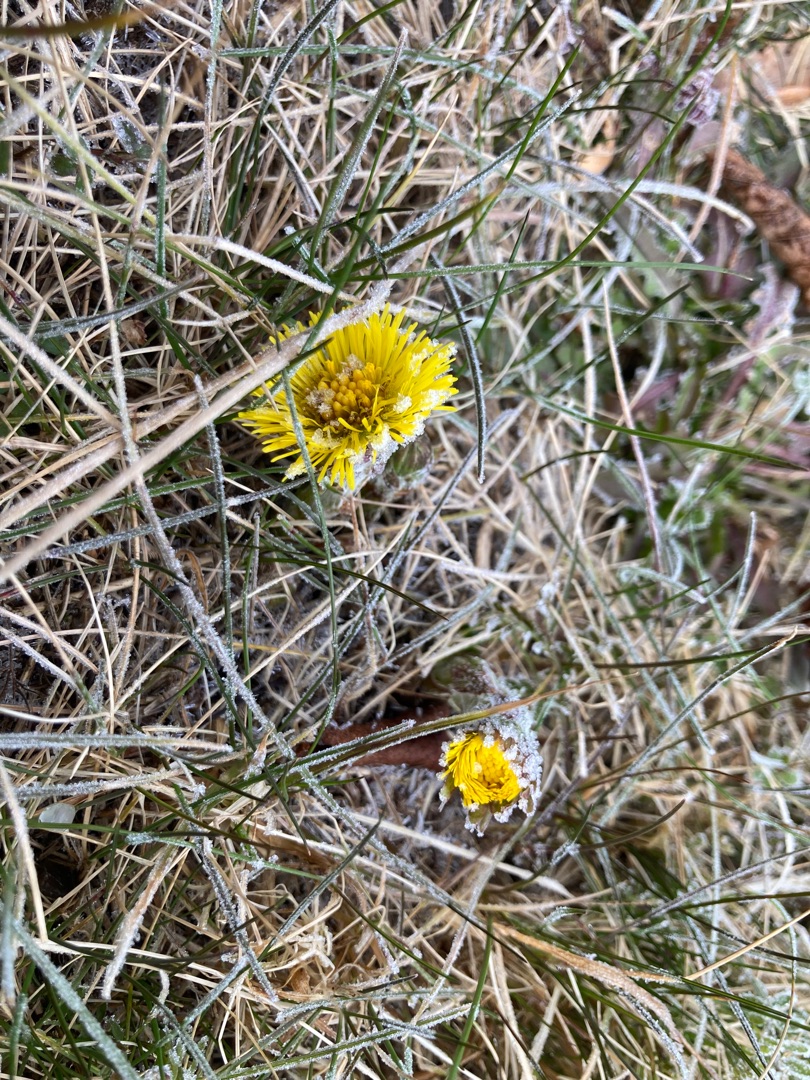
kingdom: Plantae
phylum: Tracheophyta
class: Magnoliopsida
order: Asterales
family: Asteraceae
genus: Tussilago
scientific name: Tussilago farfara
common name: Følfod
